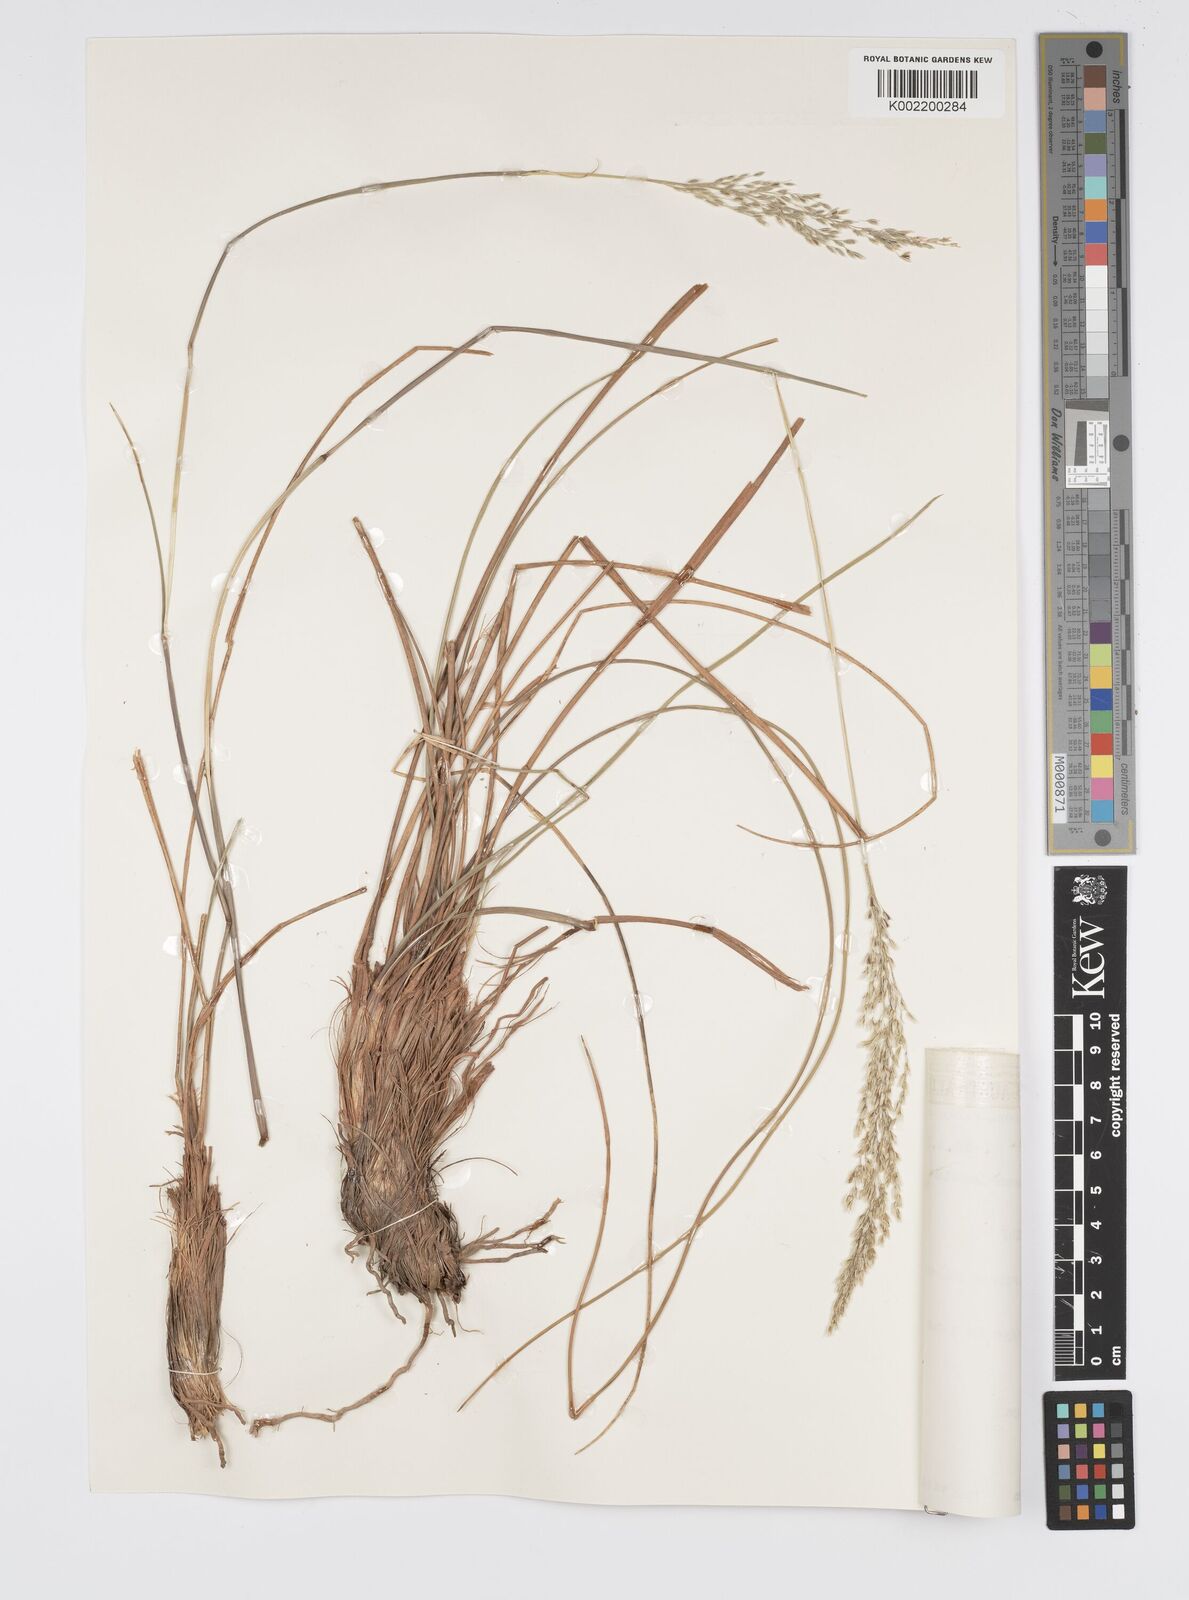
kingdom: Plantae
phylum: Tracheophyta
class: Liliopsida
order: Poales
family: Poaceae
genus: Anthenantia
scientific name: Anthenantia lanata
